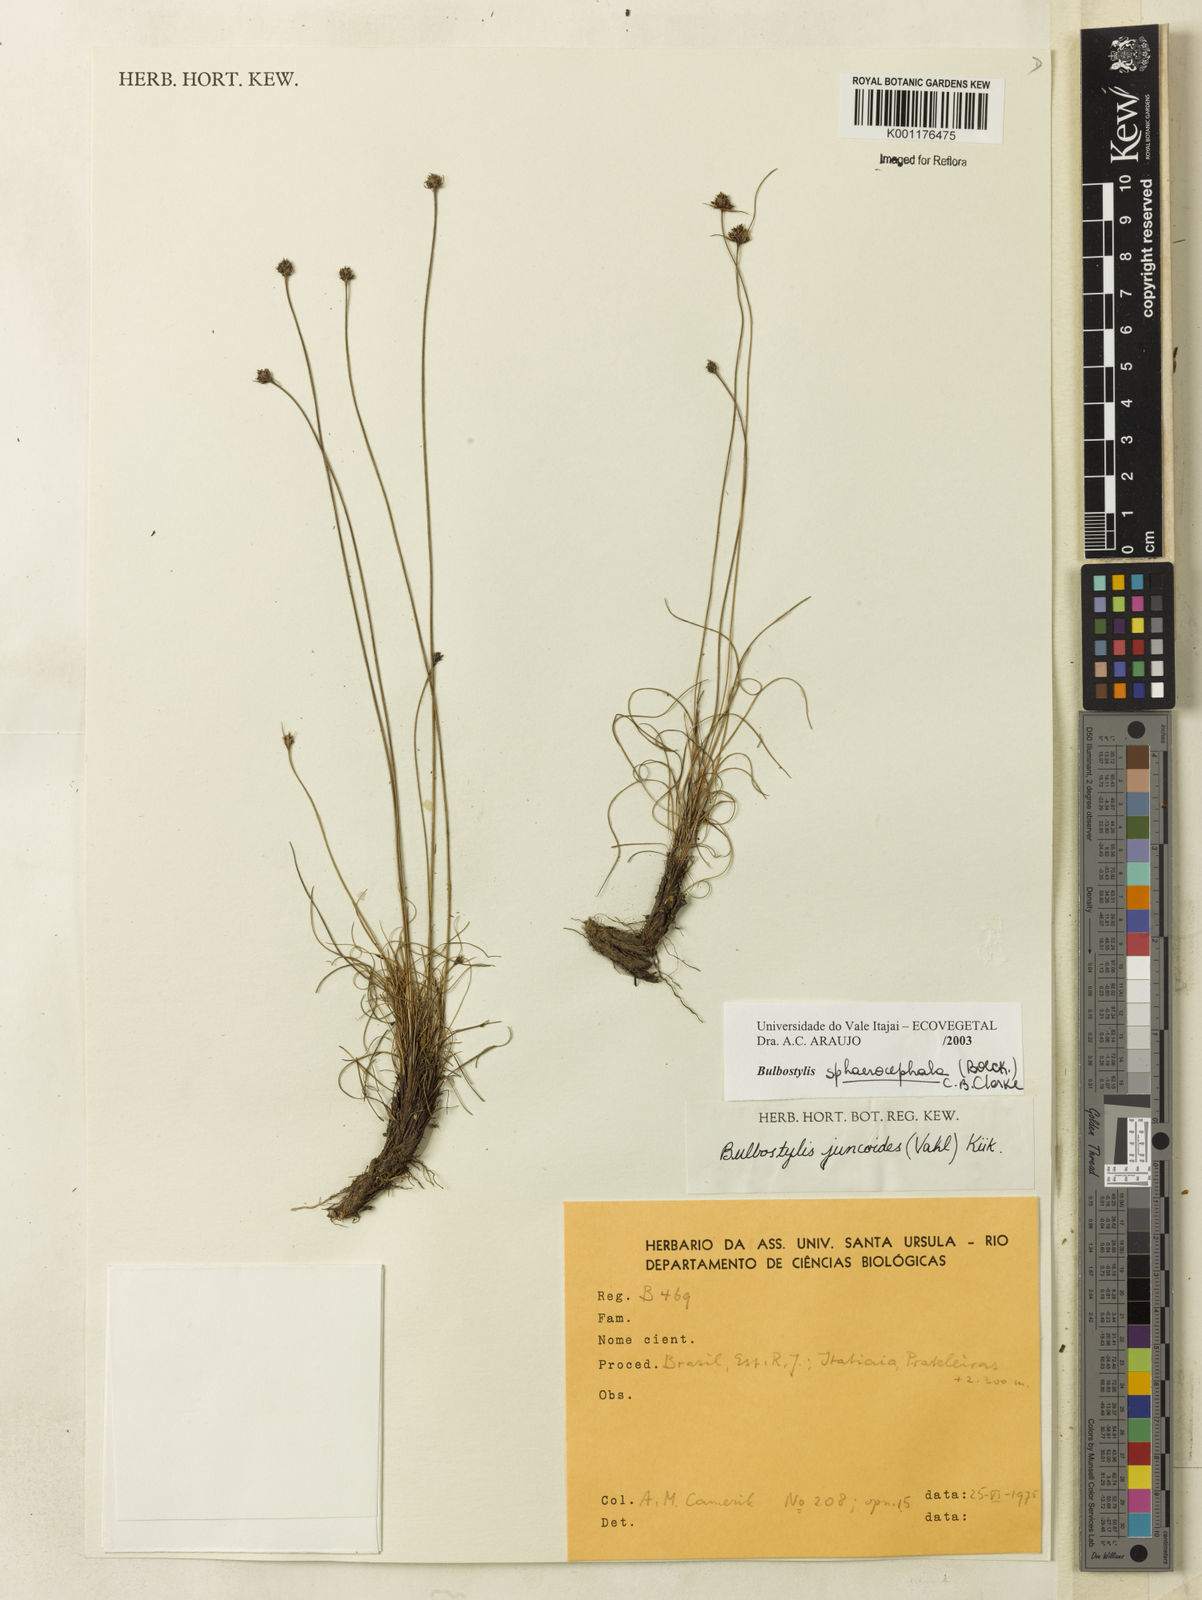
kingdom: Plantae
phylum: Tracheophyta
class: Liliopsida
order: Poales
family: Cyperaceae
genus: Bulbostylis
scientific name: Bulbostylis
